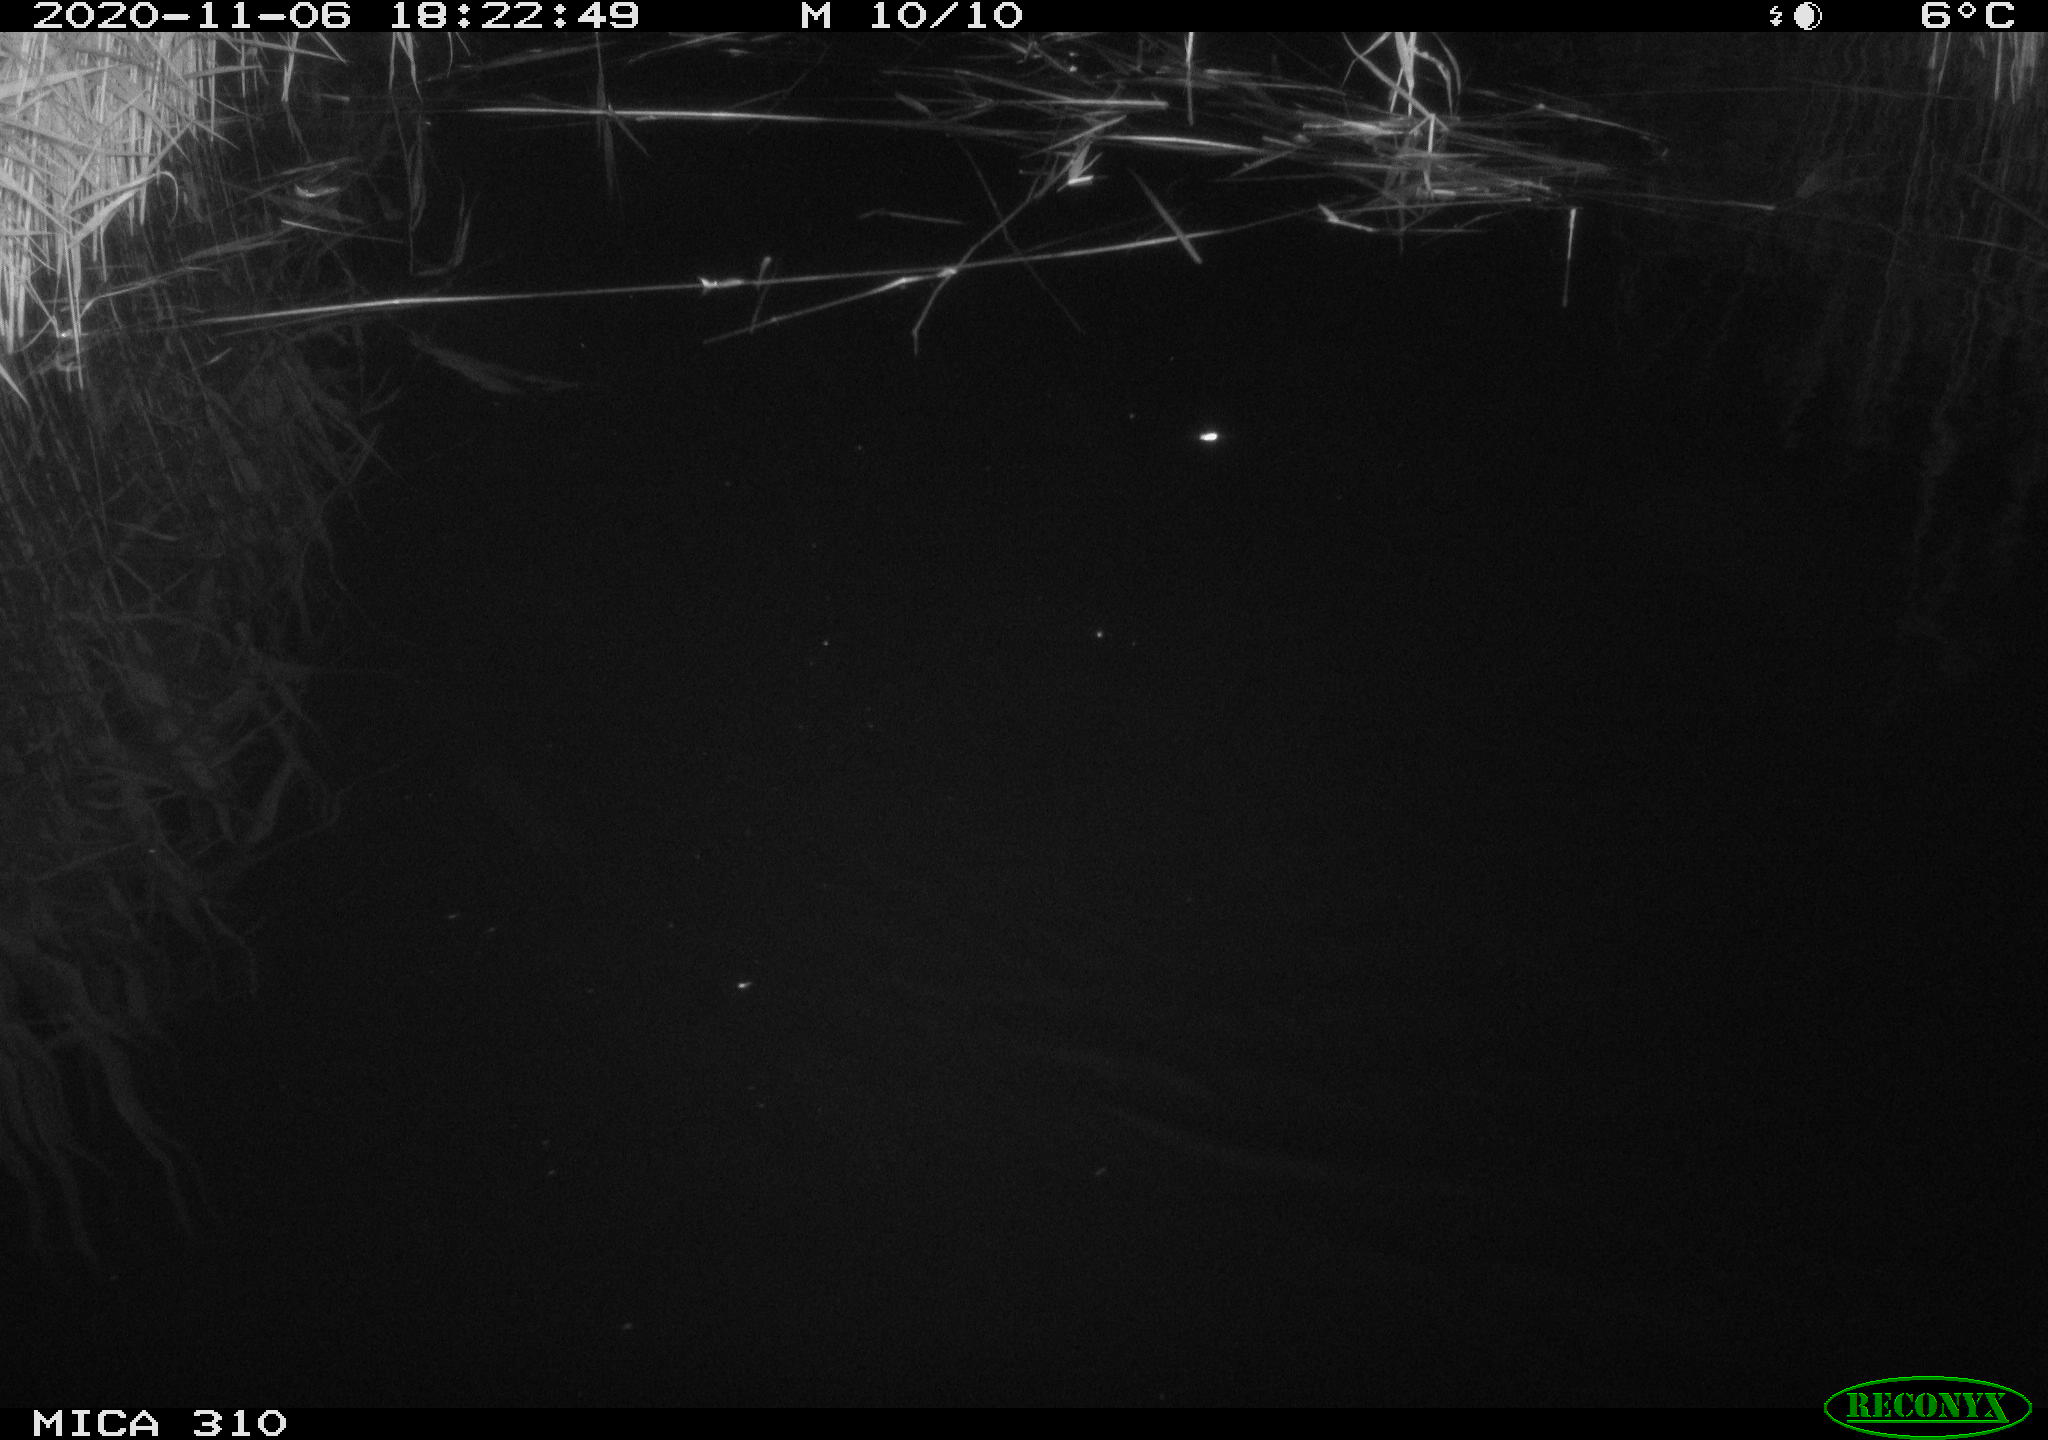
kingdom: Animalia
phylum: Chordata
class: Mammalia
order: Rodentia
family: Muridae
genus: Rattus
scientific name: Rattus norvegicus
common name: Brown rat
